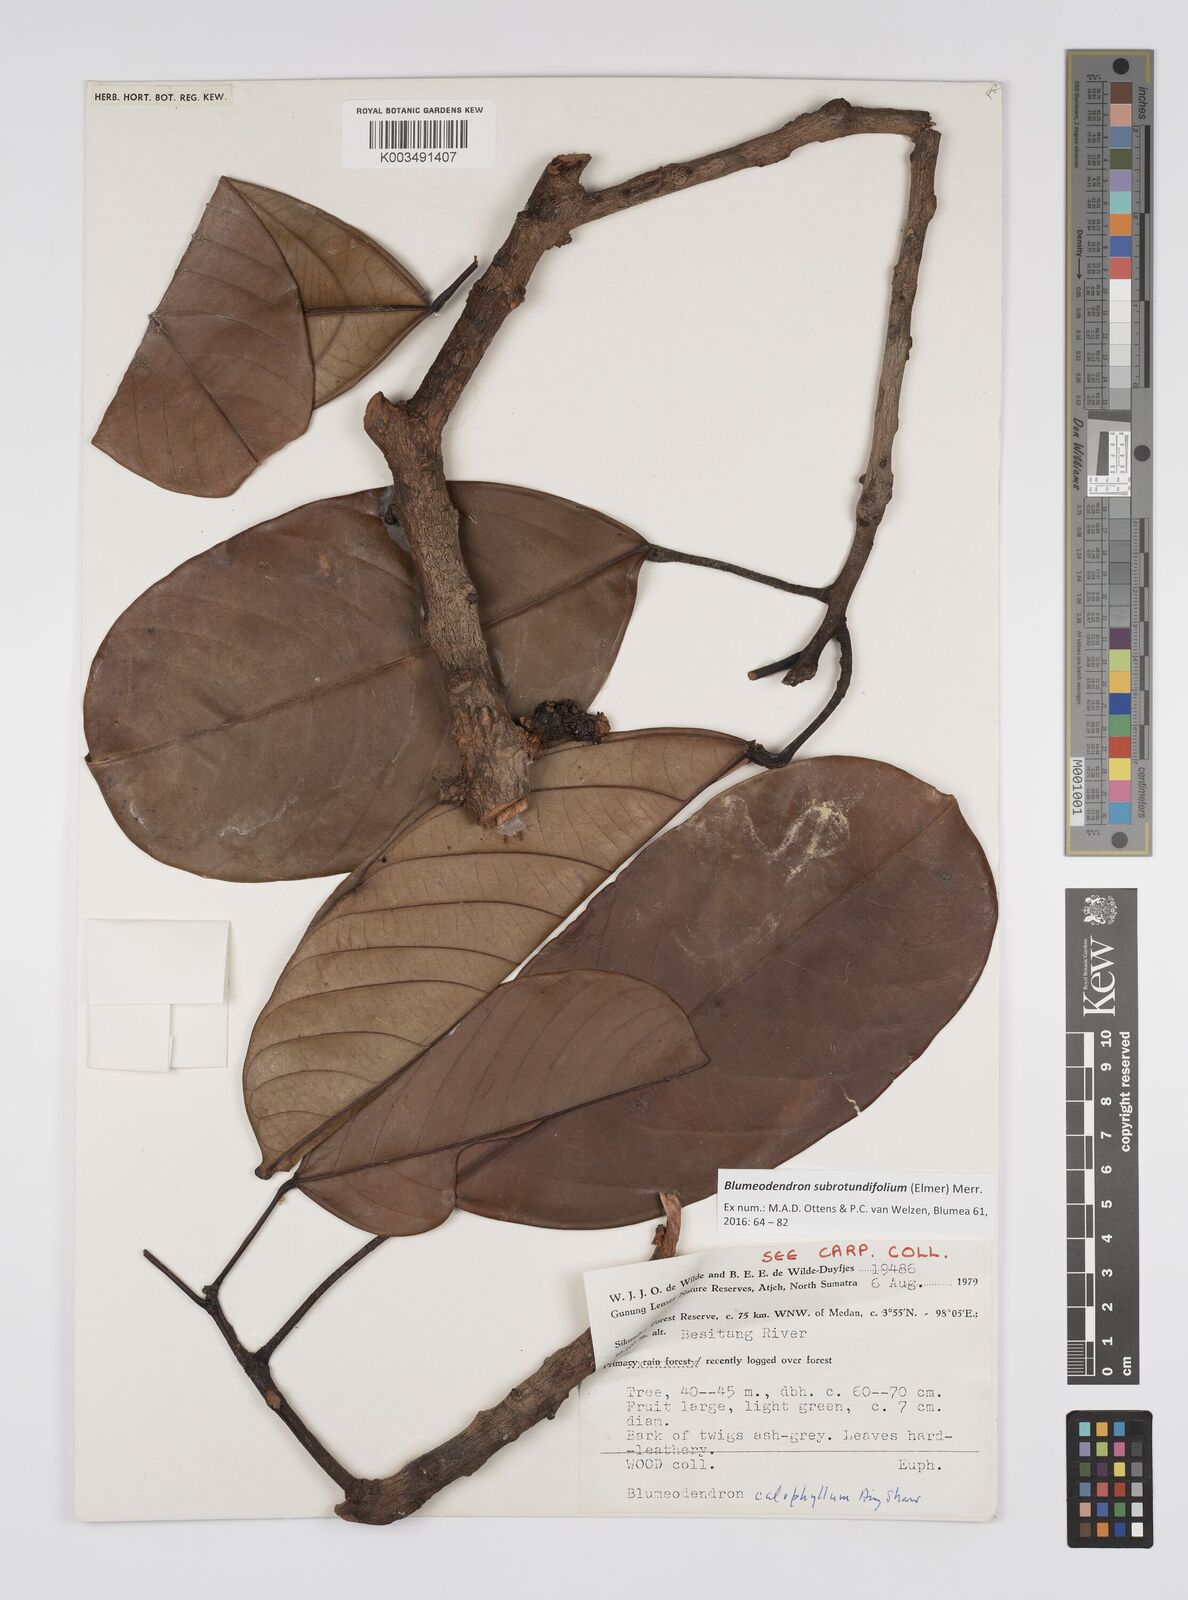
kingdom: Plantae
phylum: Tracheophyta
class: Magnoliopsida
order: Malpighiales
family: Euphorbiaceae
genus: Blumeodendron
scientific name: Blumeodendron subrotundifolium
